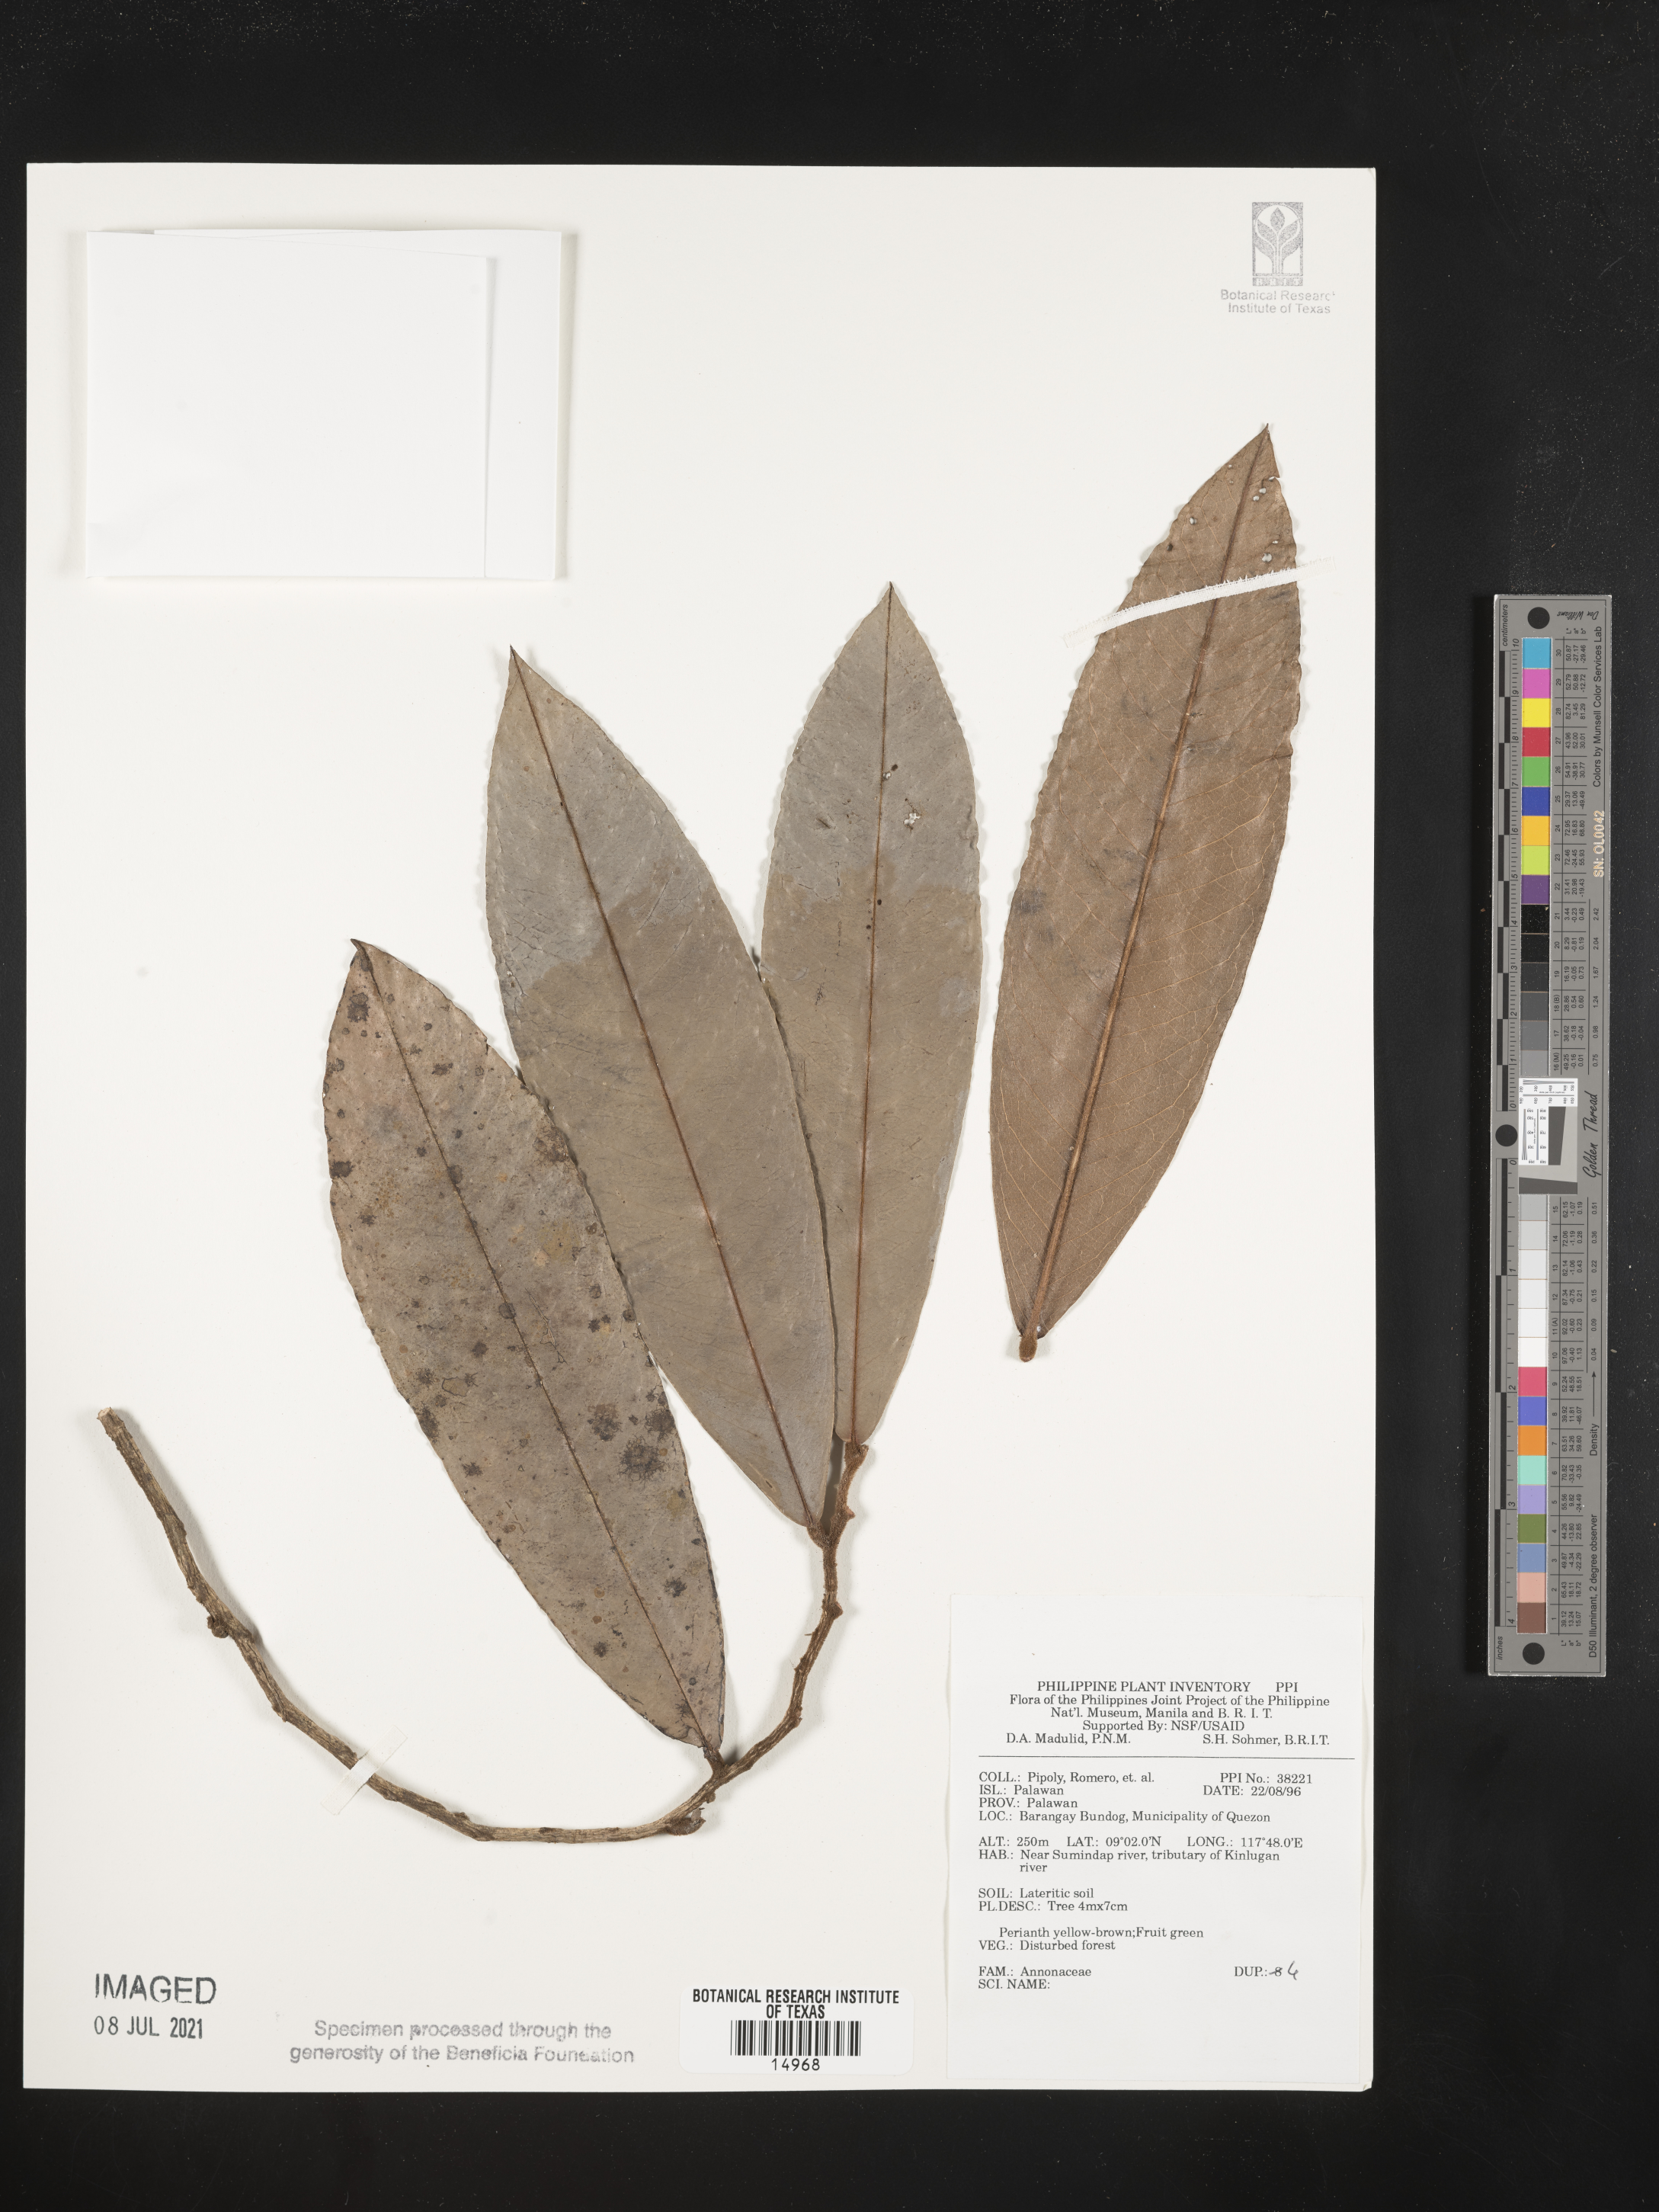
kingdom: Plantae
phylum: Tracheophyta
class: Magnoliopsida
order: Magnoliales
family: Annonaceae
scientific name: Annonaceae
